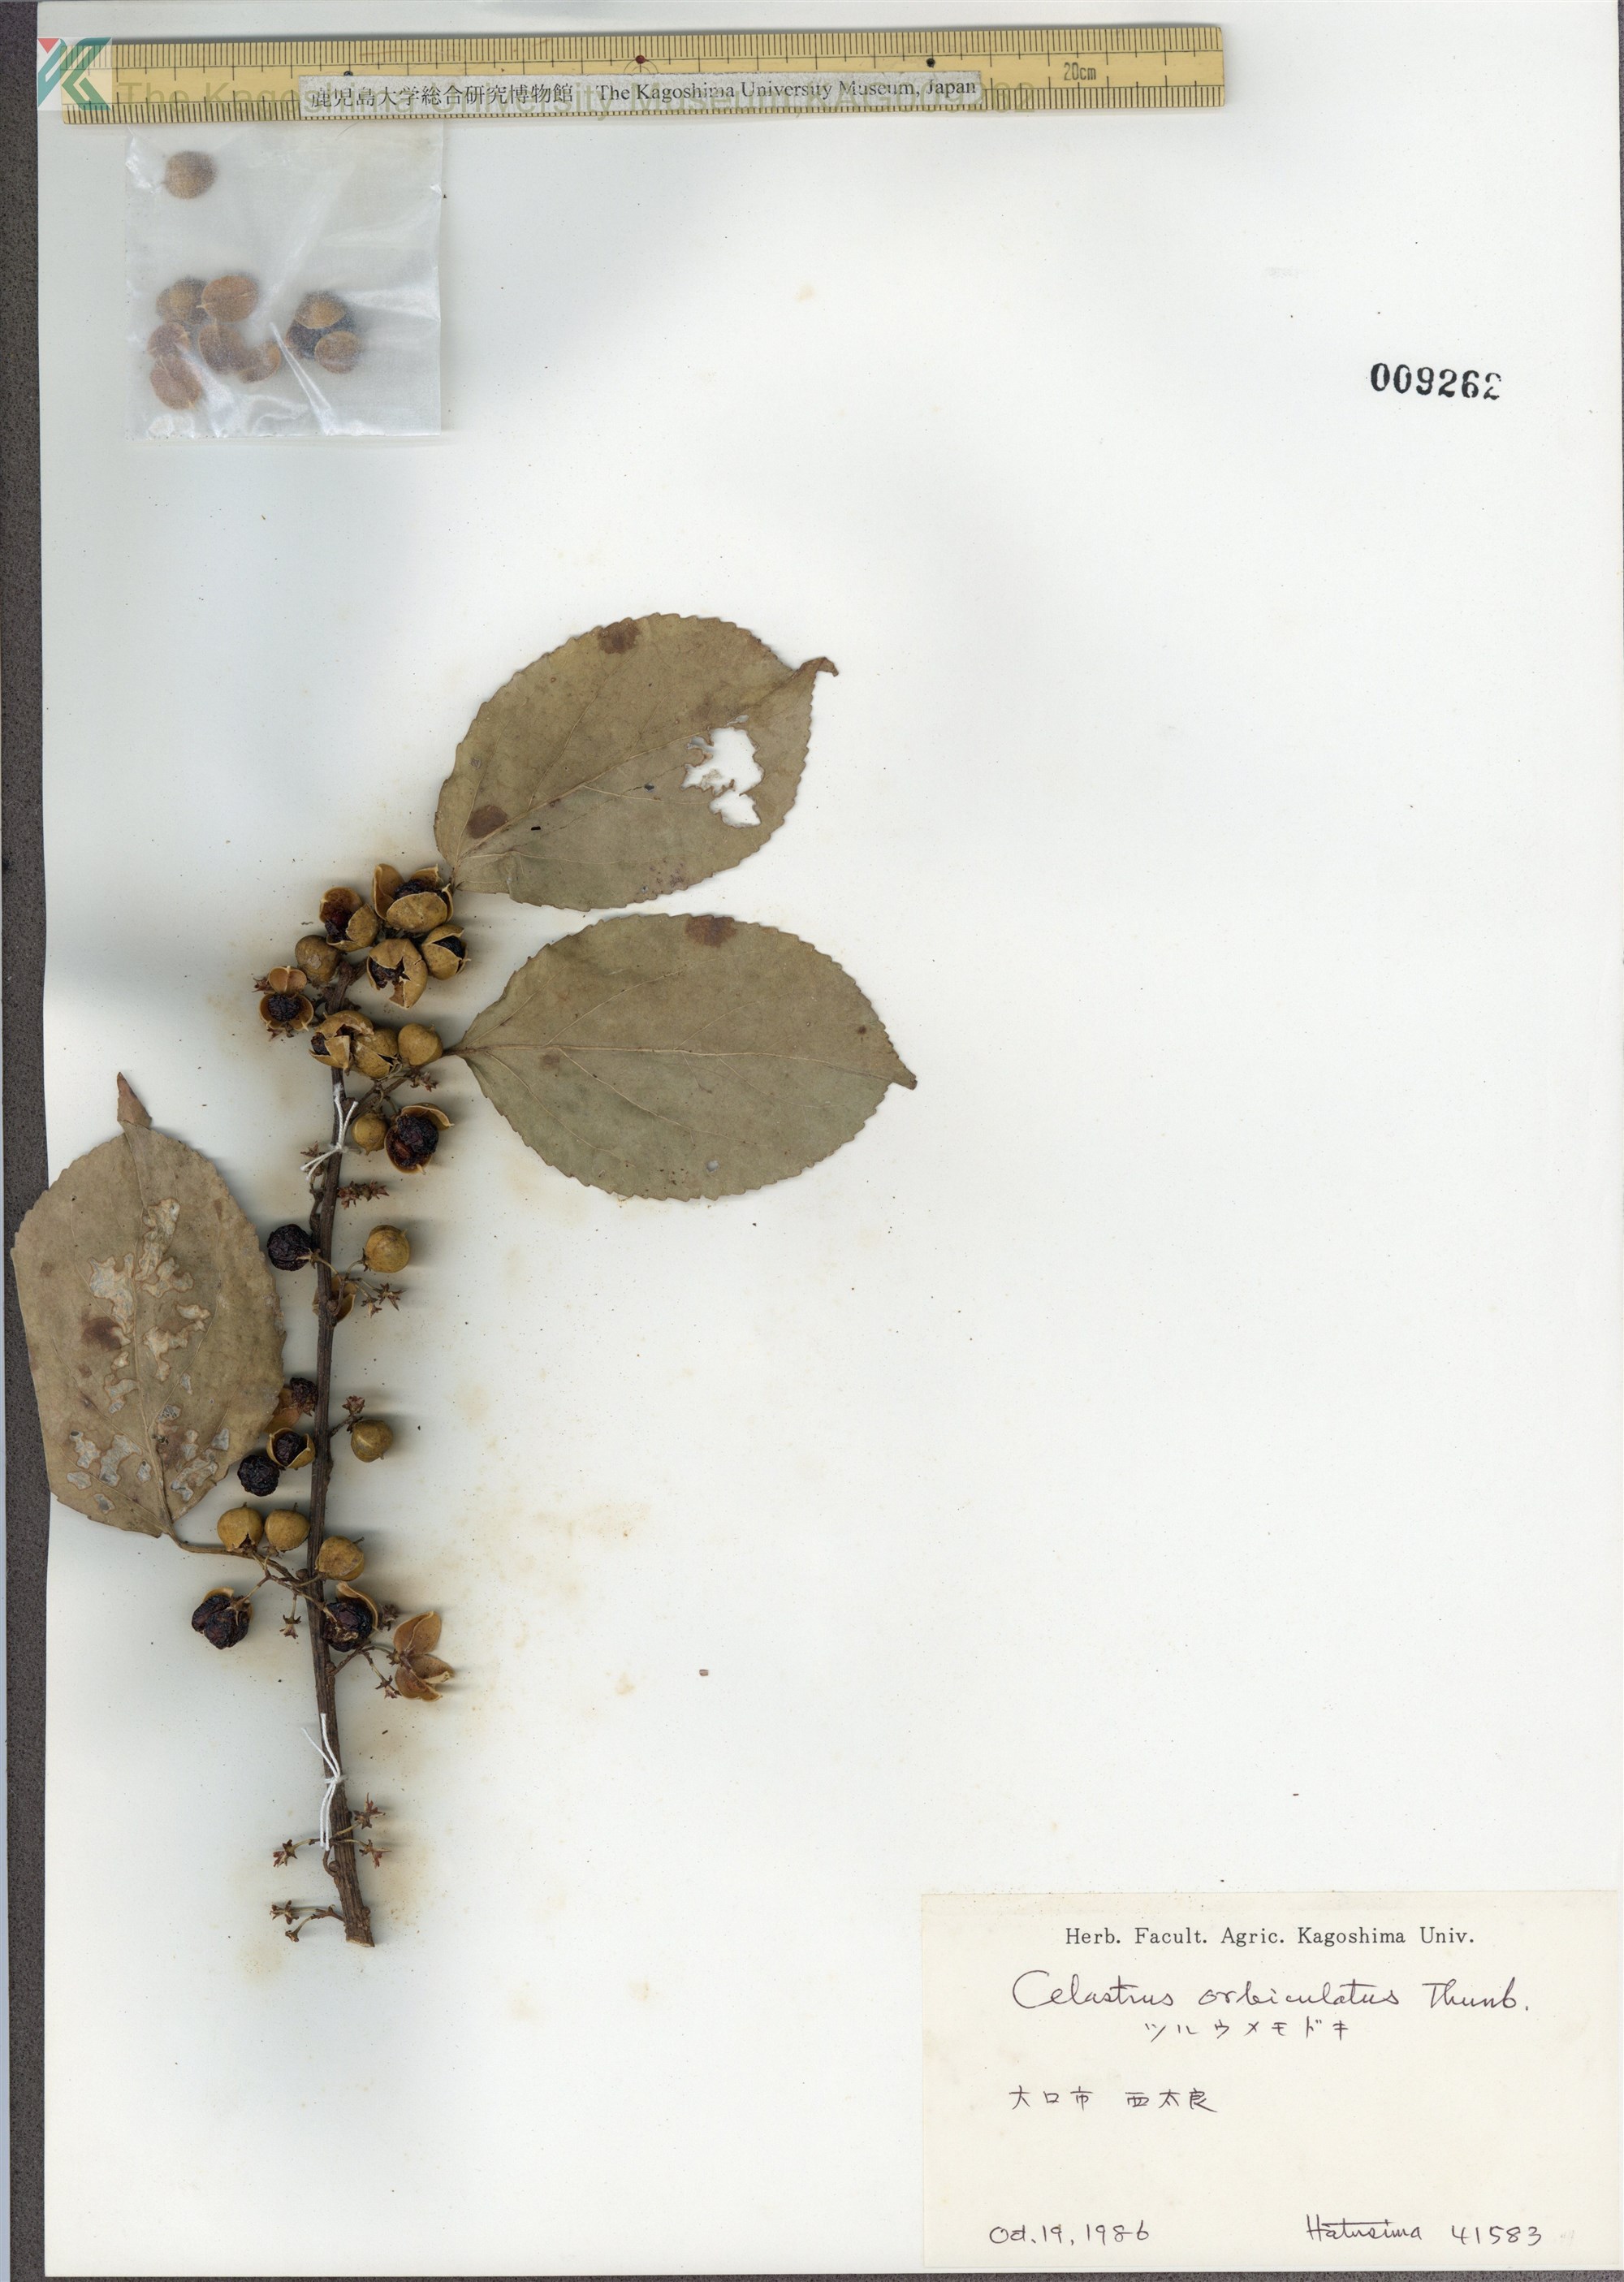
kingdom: Plantae
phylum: Tracheophyta
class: Magnoliopsida
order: Celastrales
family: Celastraceae
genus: Celastrus
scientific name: Celastrus orbiculatus
